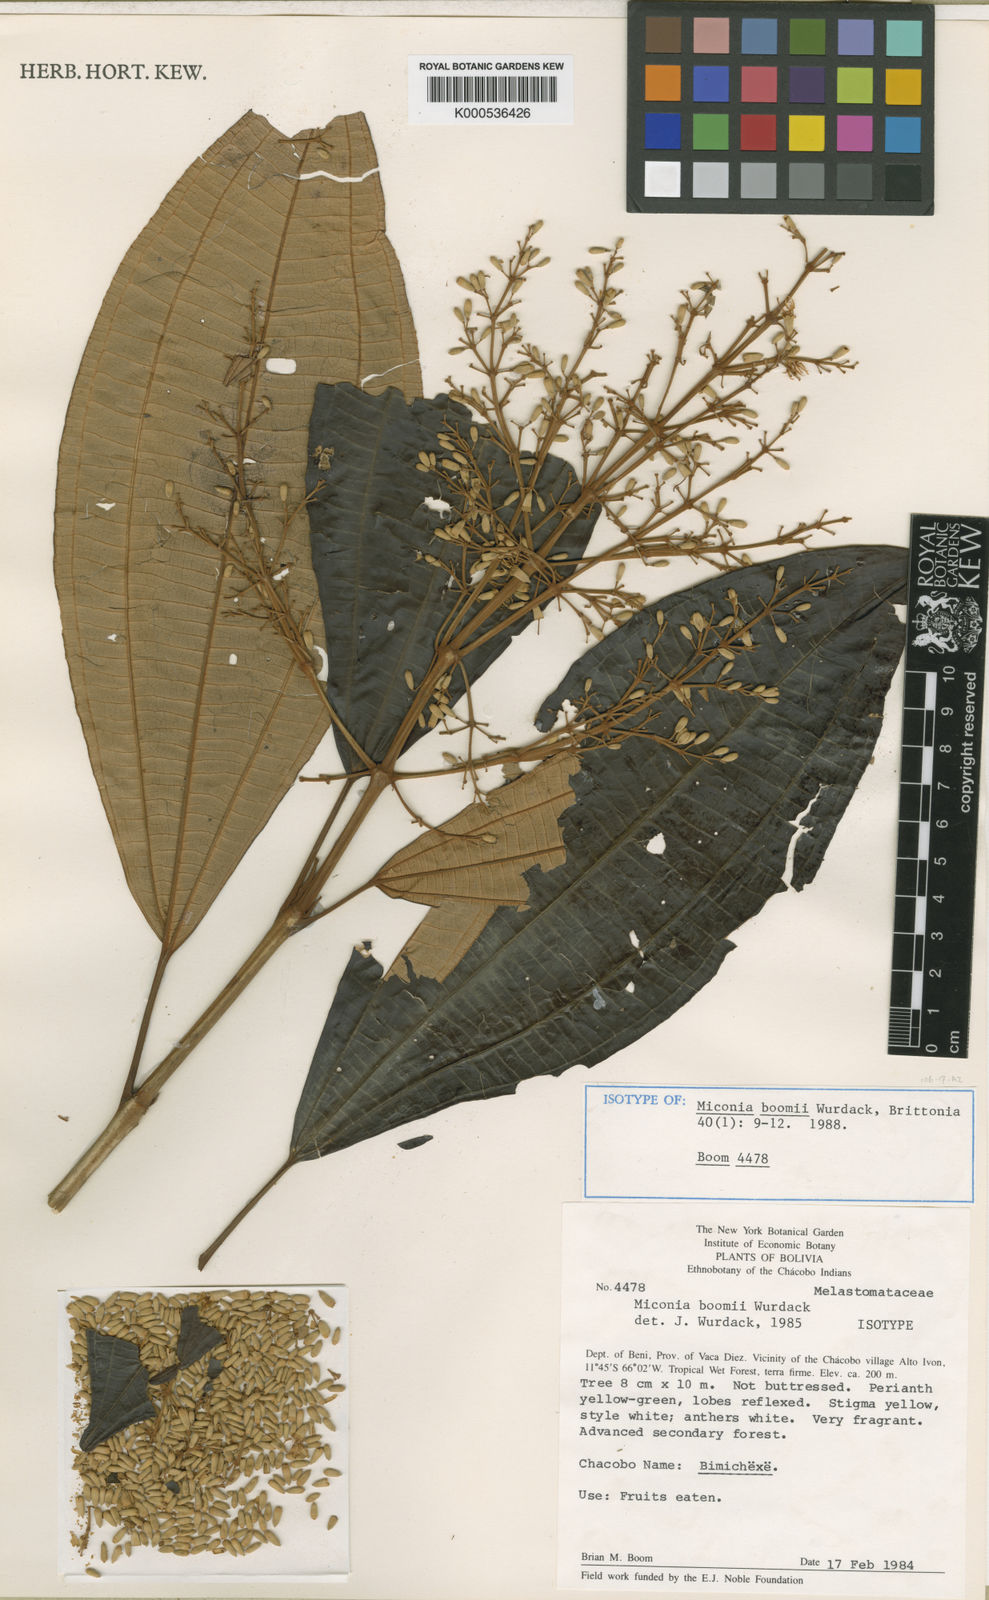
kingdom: Plantae
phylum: Tracheophyta
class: Magnoliopsida
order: Myrtales
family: Melastomataceae
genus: Miconia
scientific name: Miconia boomii
